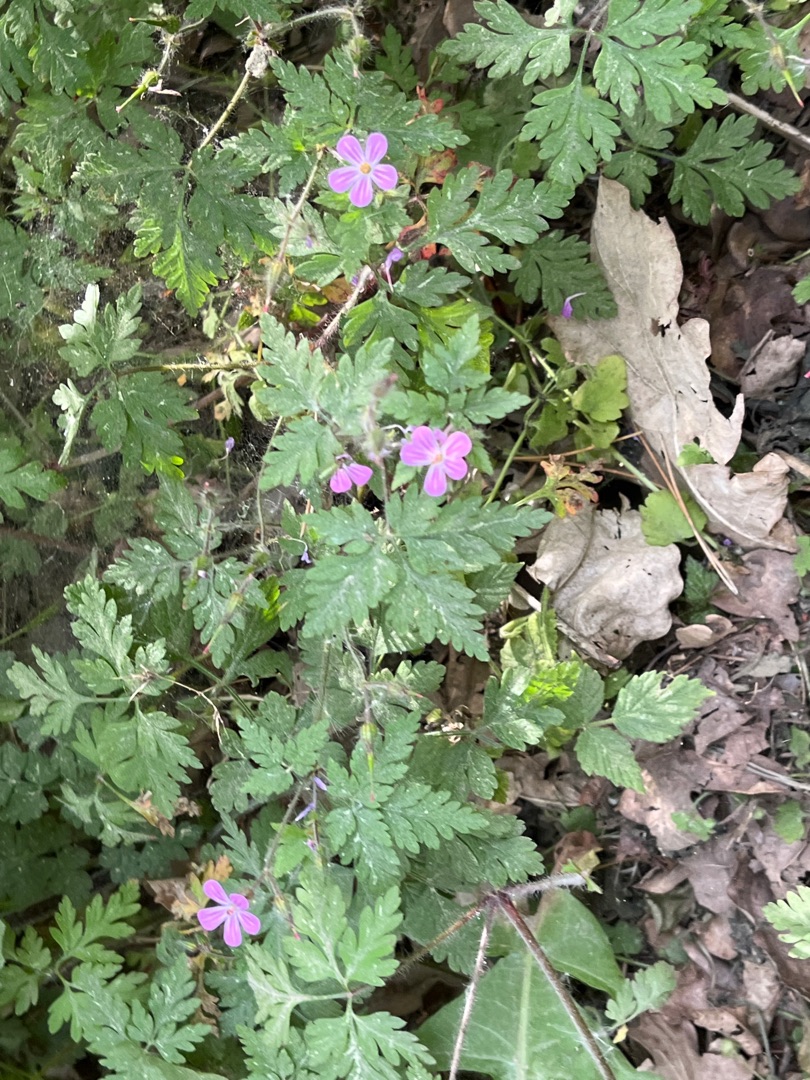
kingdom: Plantae
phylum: Tracheophyta
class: Magnoliopsida
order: Geraniales
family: Geraniaceae
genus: Geranium
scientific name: Geranium robertianum
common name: Stinkende storkenæb
